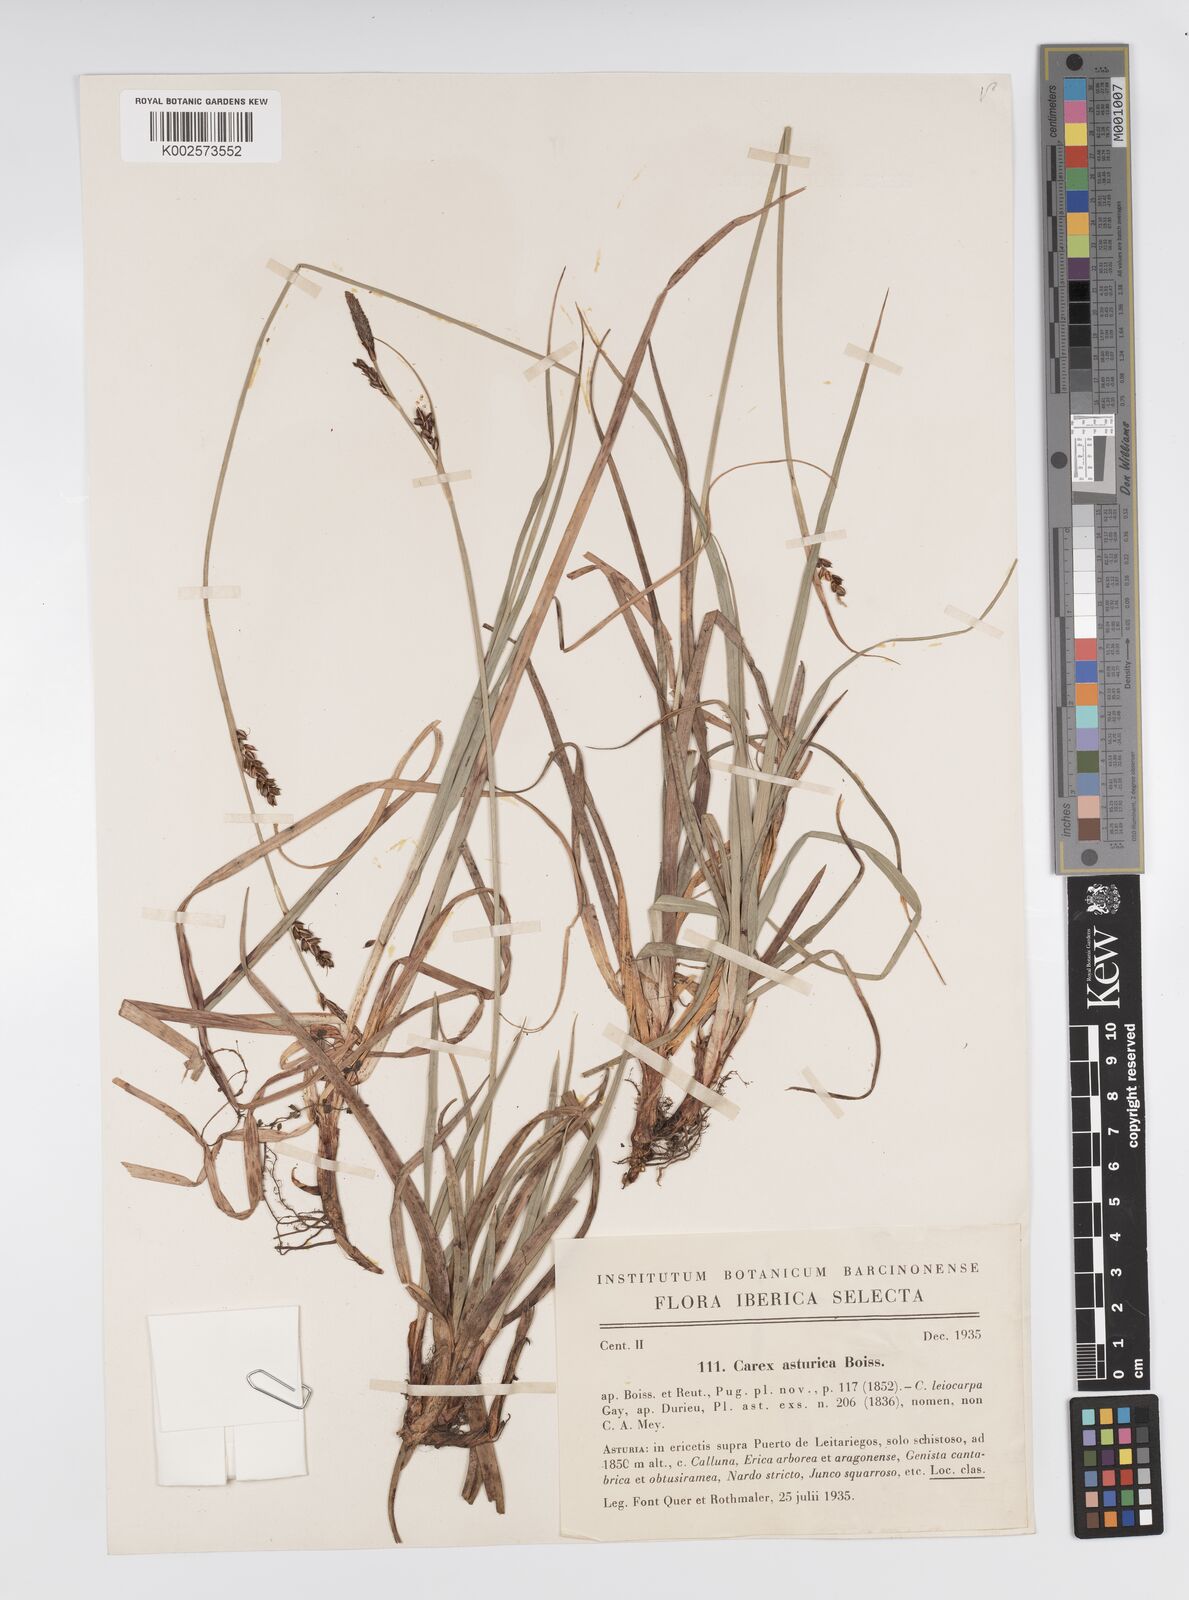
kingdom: Plantae
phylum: Tracheophyta
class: Liliopsida
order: Poales
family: Cyperaceae
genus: Carex
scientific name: Carex asturica
